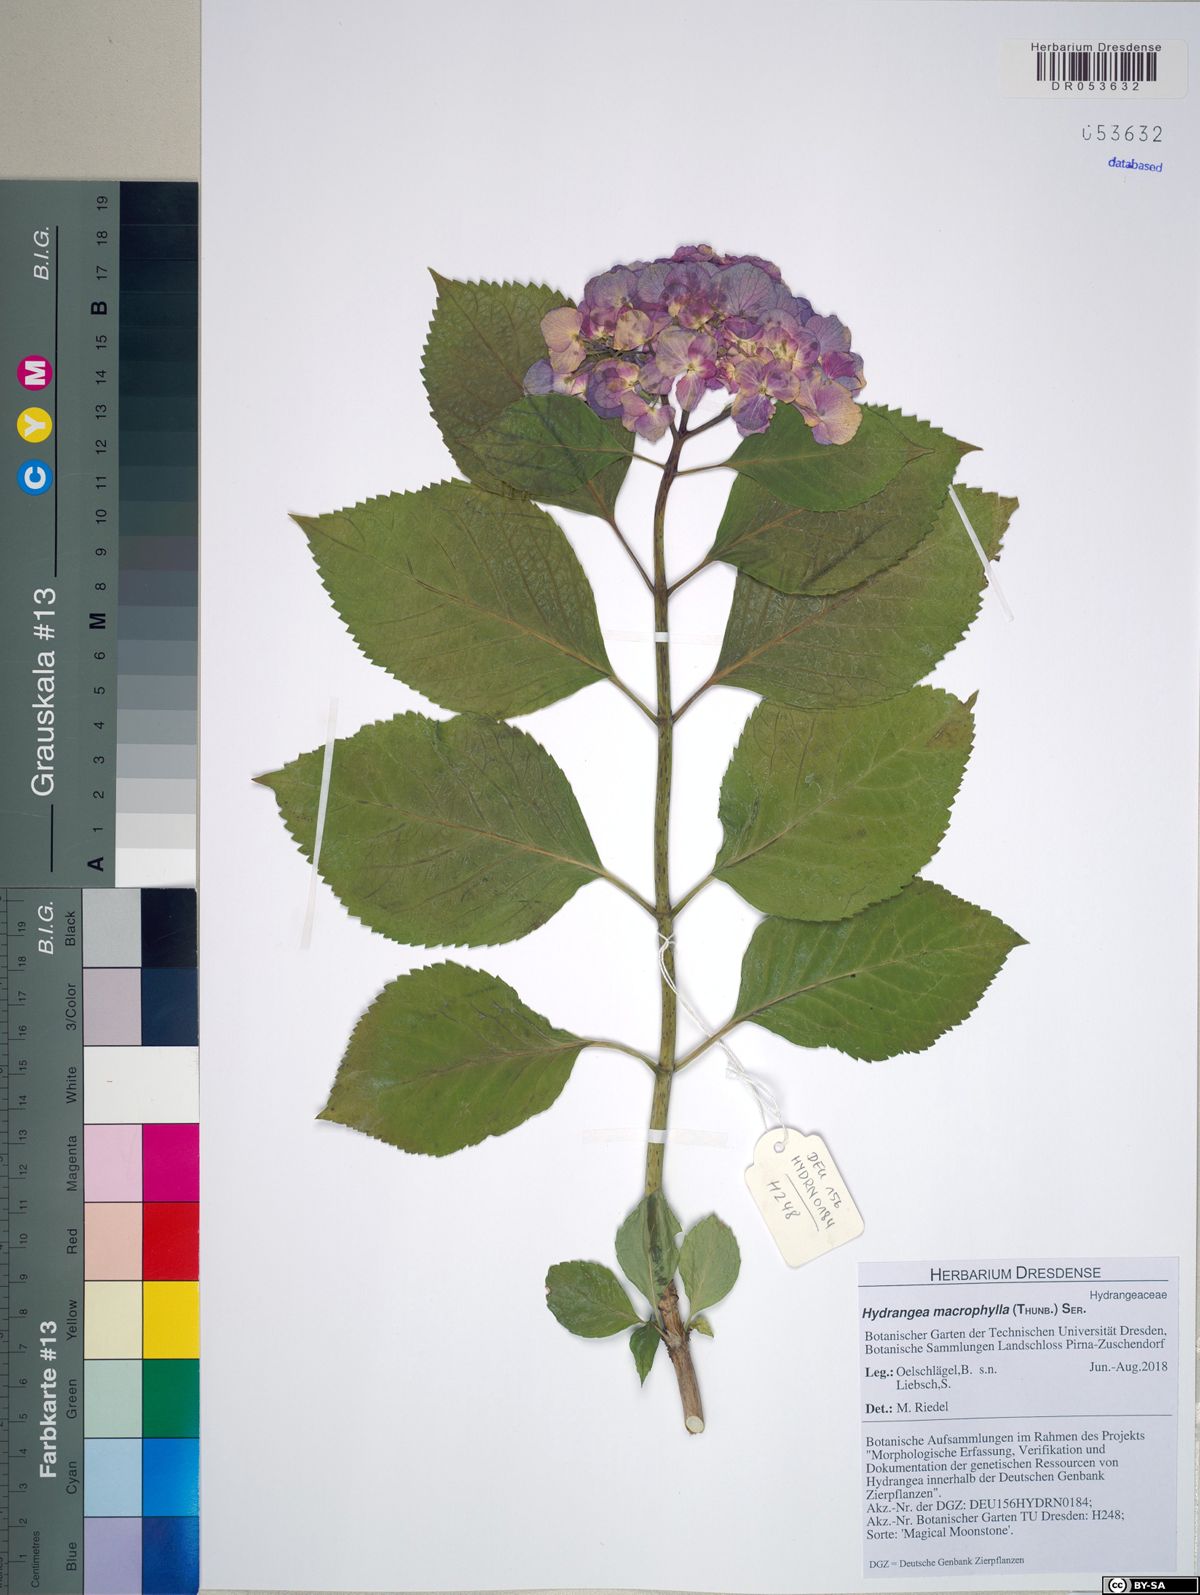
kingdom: Plantae
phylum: Tracheophyta
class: Magnoliopsida
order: Cornales
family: Hydrangeaceae
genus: Hydrangea
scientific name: Hydrangea macrophylla
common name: Hydrangea
